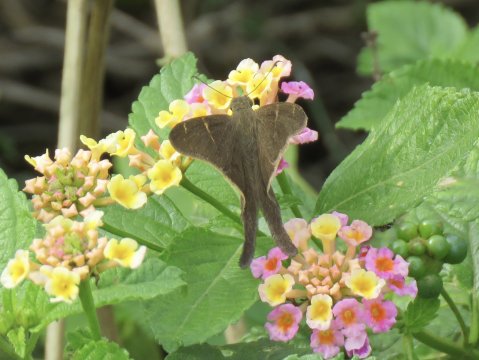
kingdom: Animalia
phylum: Arthropoda
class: Insecta
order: Lepidoptera
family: Hesperiidae
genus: Urbanus
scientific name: Urbanus procne
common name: Brown Longtail
